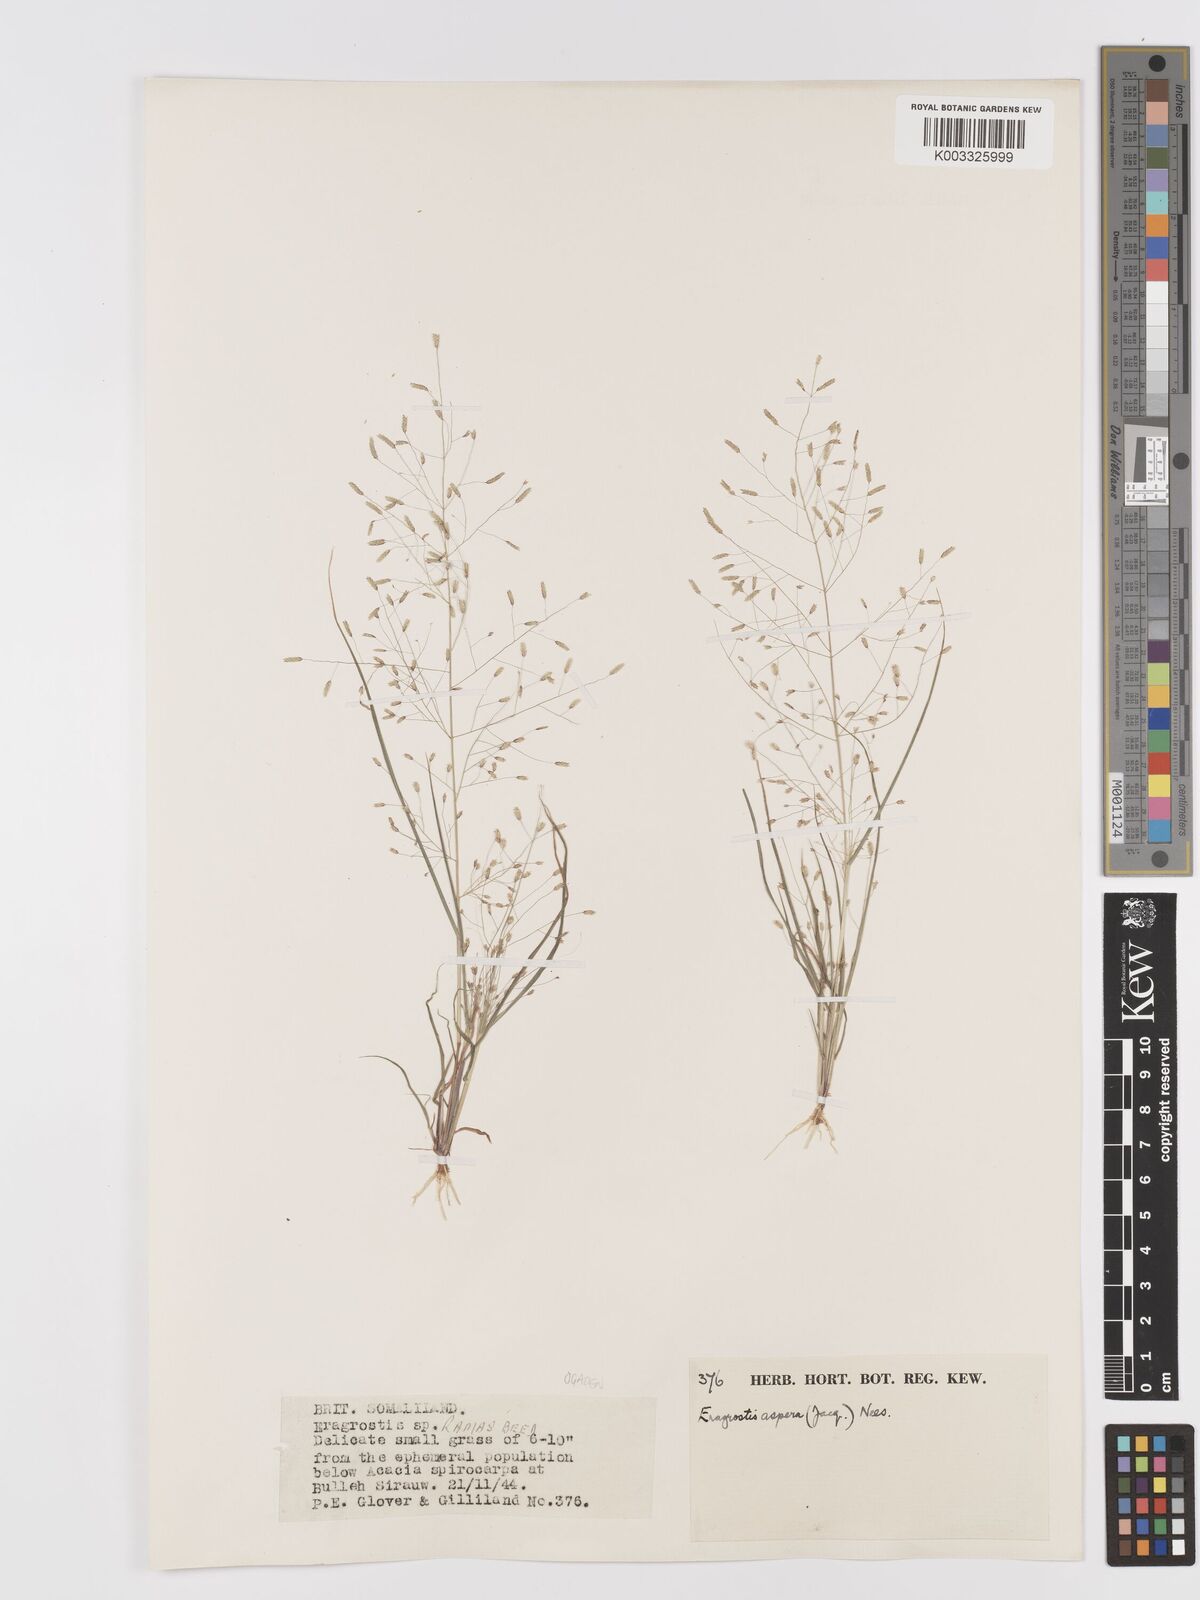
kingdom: Plantae
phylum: Tracheophyta
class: Liliopsida
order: Poales
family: Poaceae
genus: Eragrostis
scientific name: Eragrostis aspera
